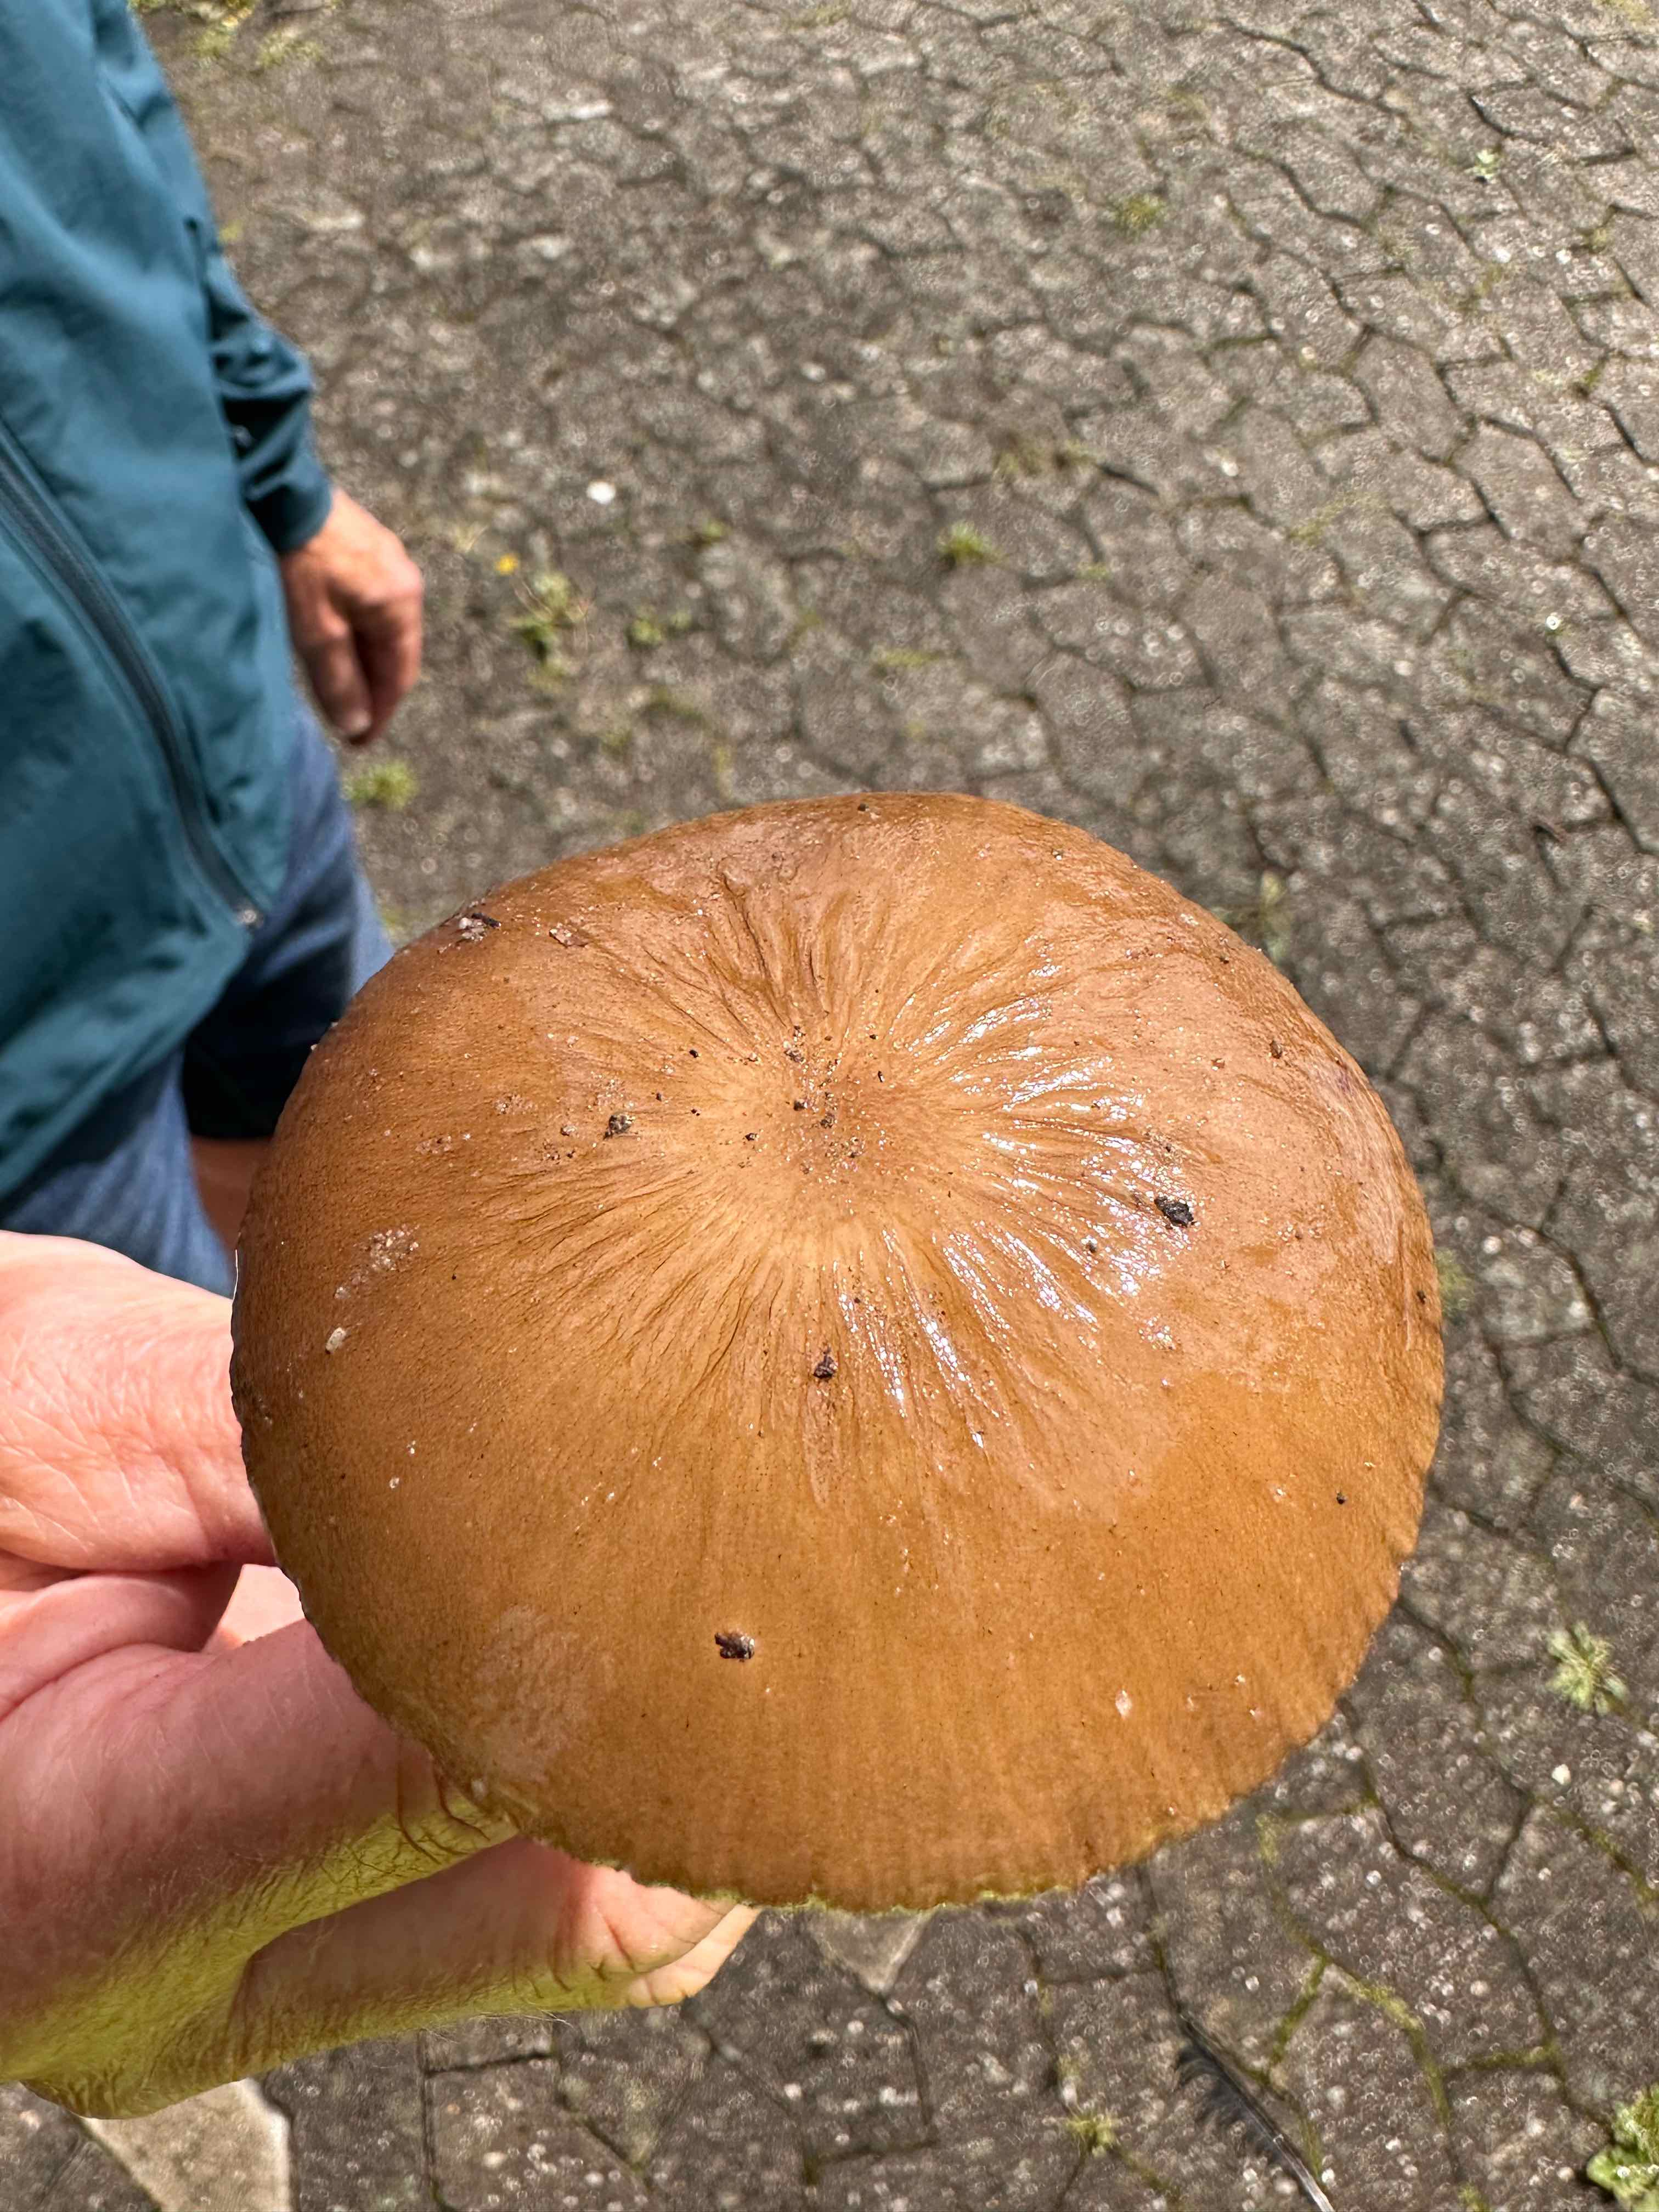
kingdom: Fungi
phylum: Basidiomycota
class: Agaricomycetes
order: Agaricales
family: Physalacriaceae
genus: Hymenopellis
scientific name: Hymenopellis radicata
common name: almindelig pælerodshat
